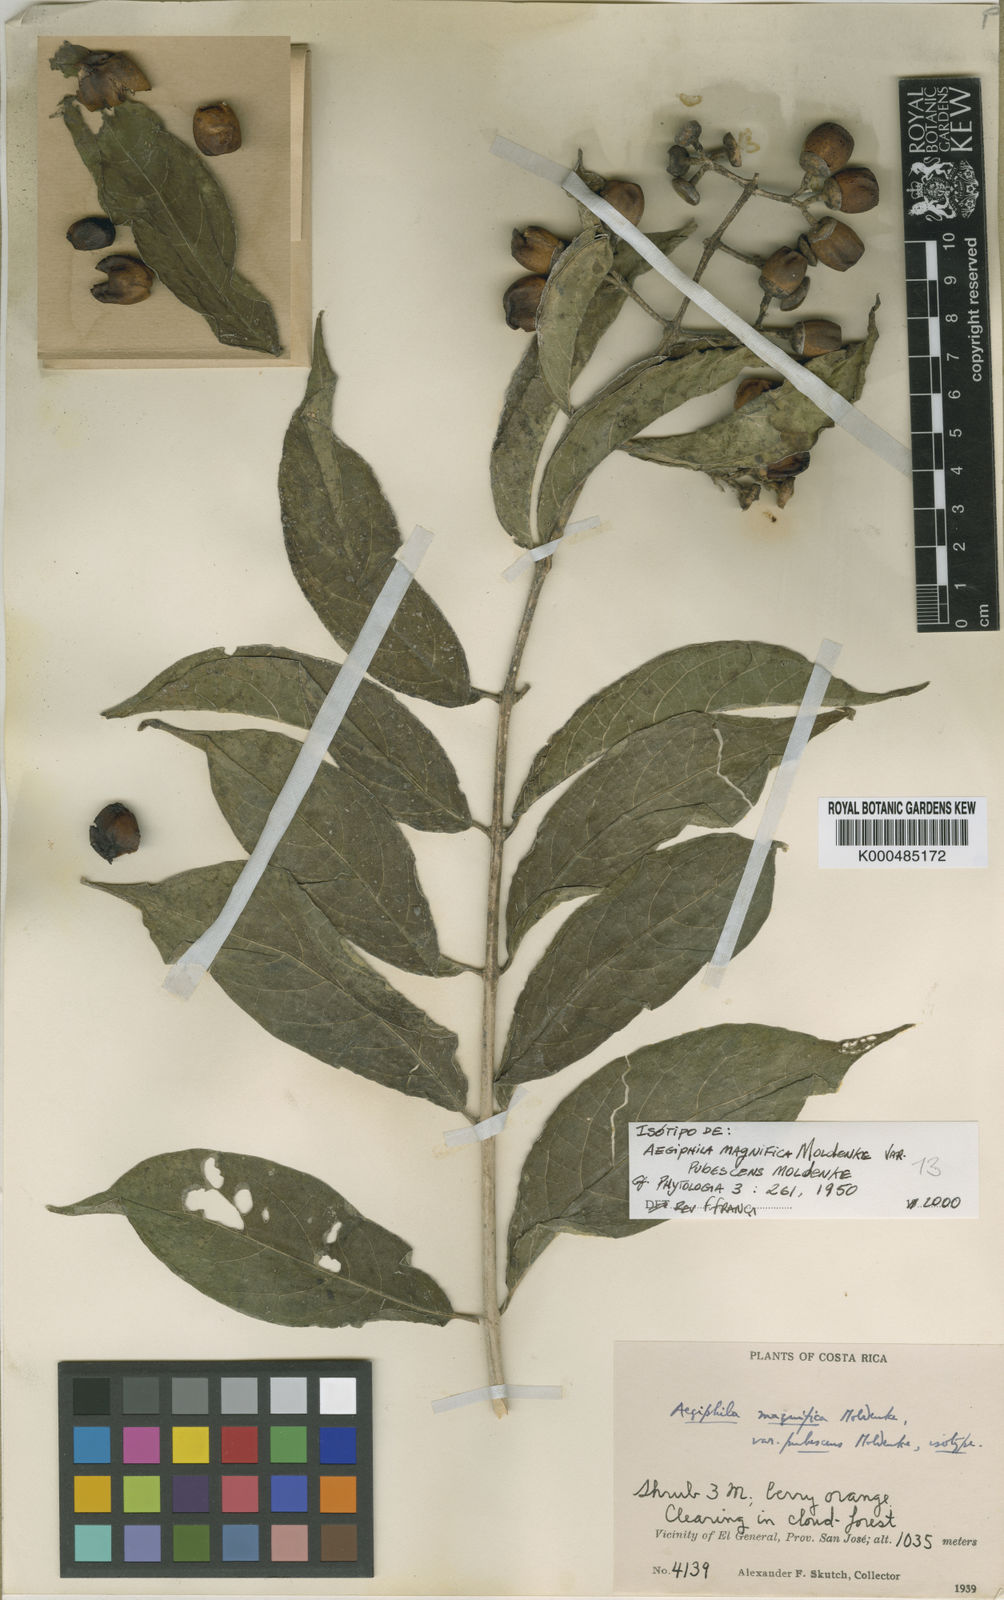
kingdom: Plantae
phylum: Tracheophyta
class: Magnoliopsida
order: Lamiales
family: Lamiaceae
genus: Aegiphila
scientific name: Aegiphila panamensis
